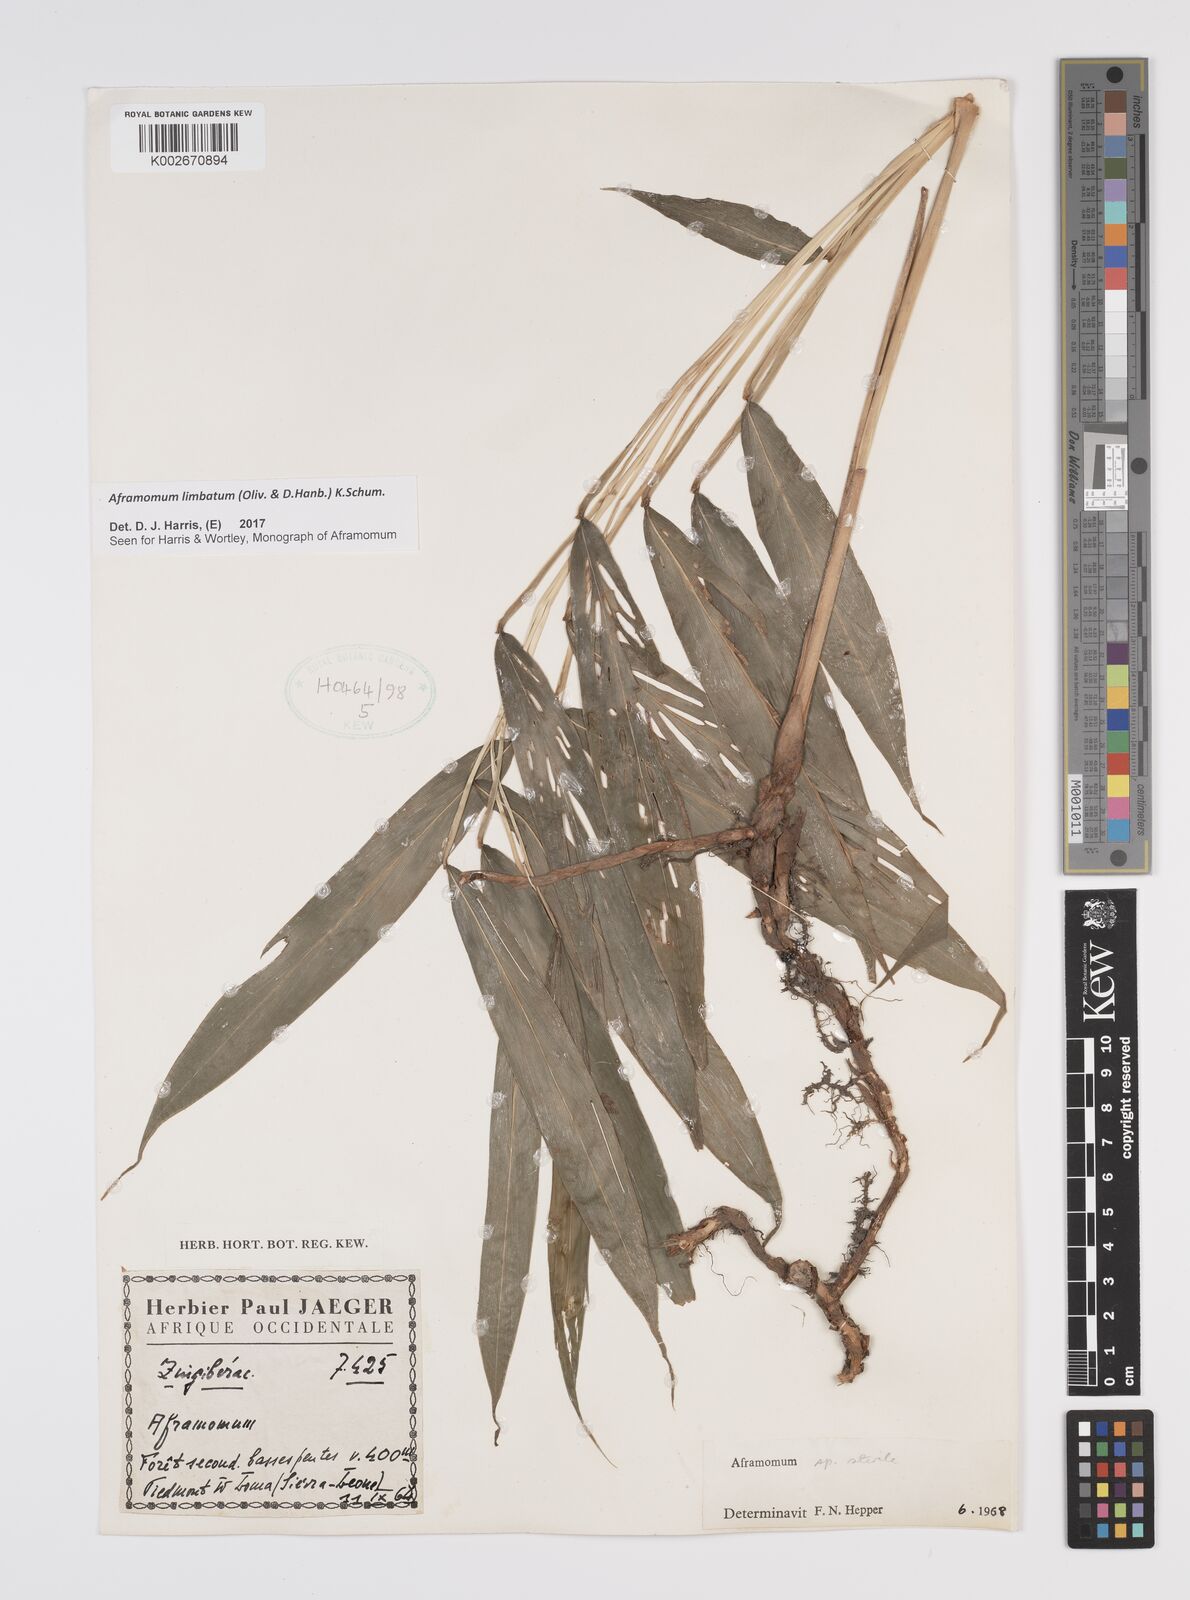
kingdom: Plantae
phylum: Tracheophyta
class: Liliopsida
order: Zingiberales
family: Zingiberaceae
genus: Aframomum
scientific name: Aframomum limbatum
